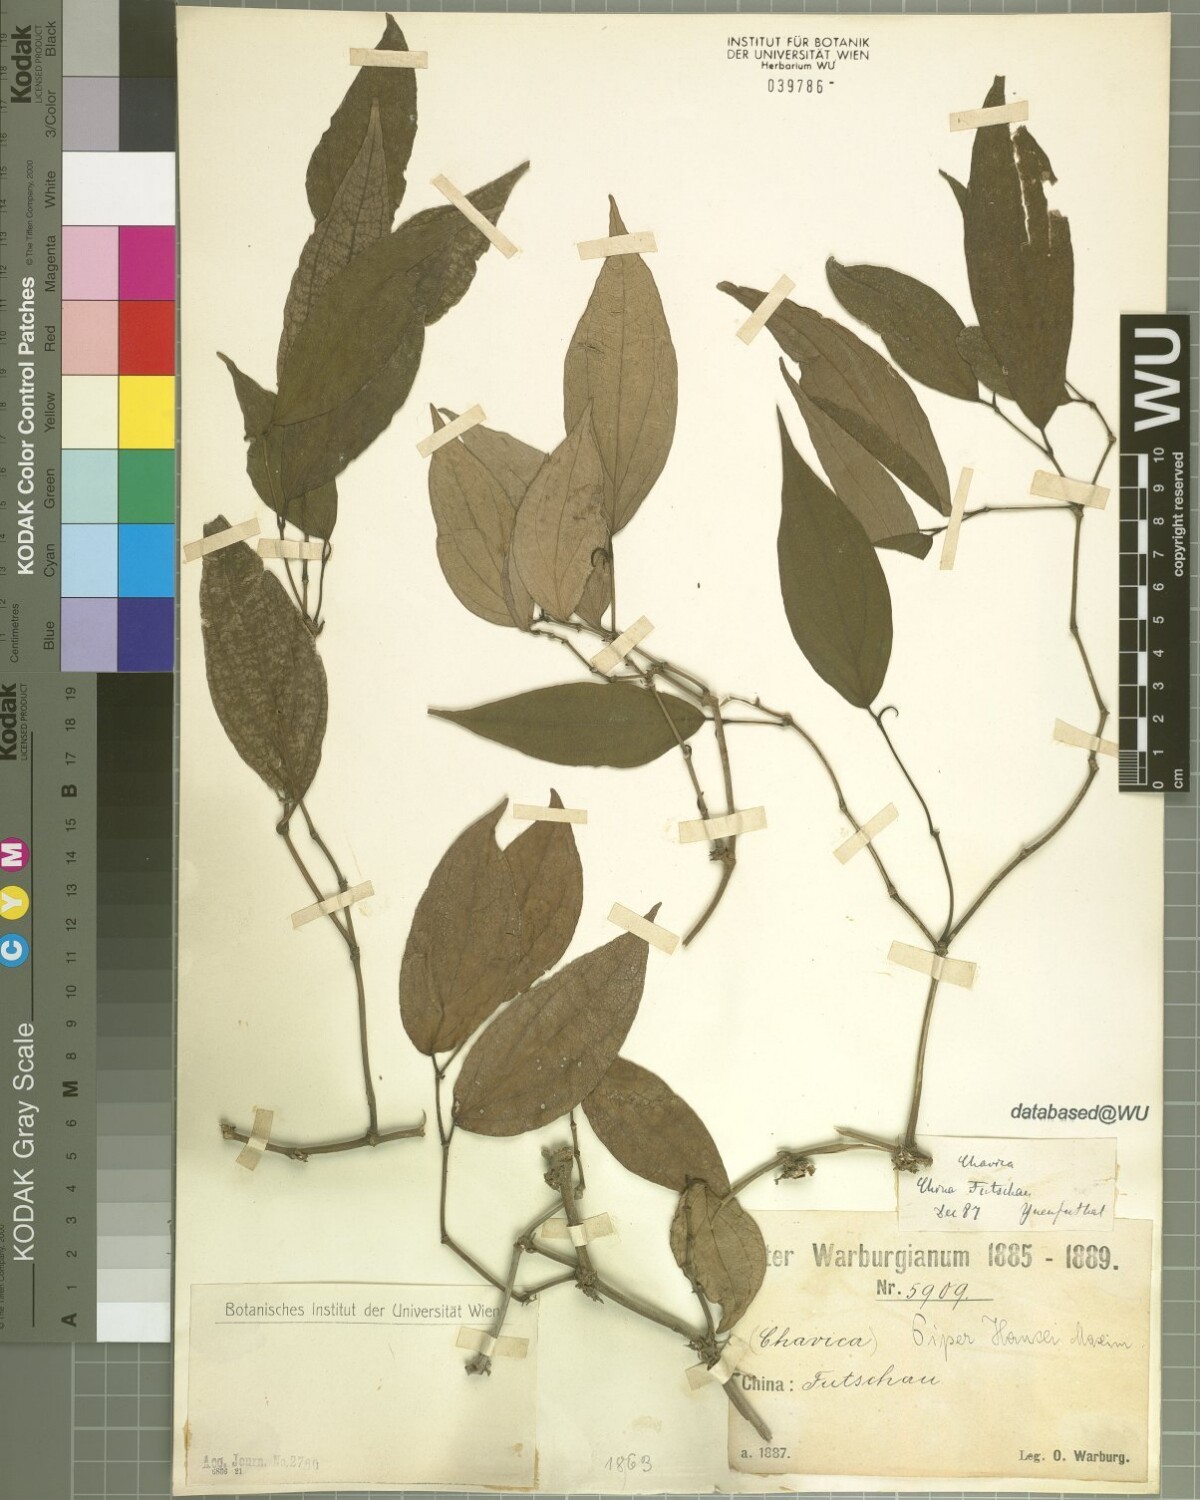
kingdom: Plantae
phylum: Tracheophyta
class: Magnoliopsida
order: Piperales
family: Piperaceae
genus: Piper
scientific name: Piper hancei
